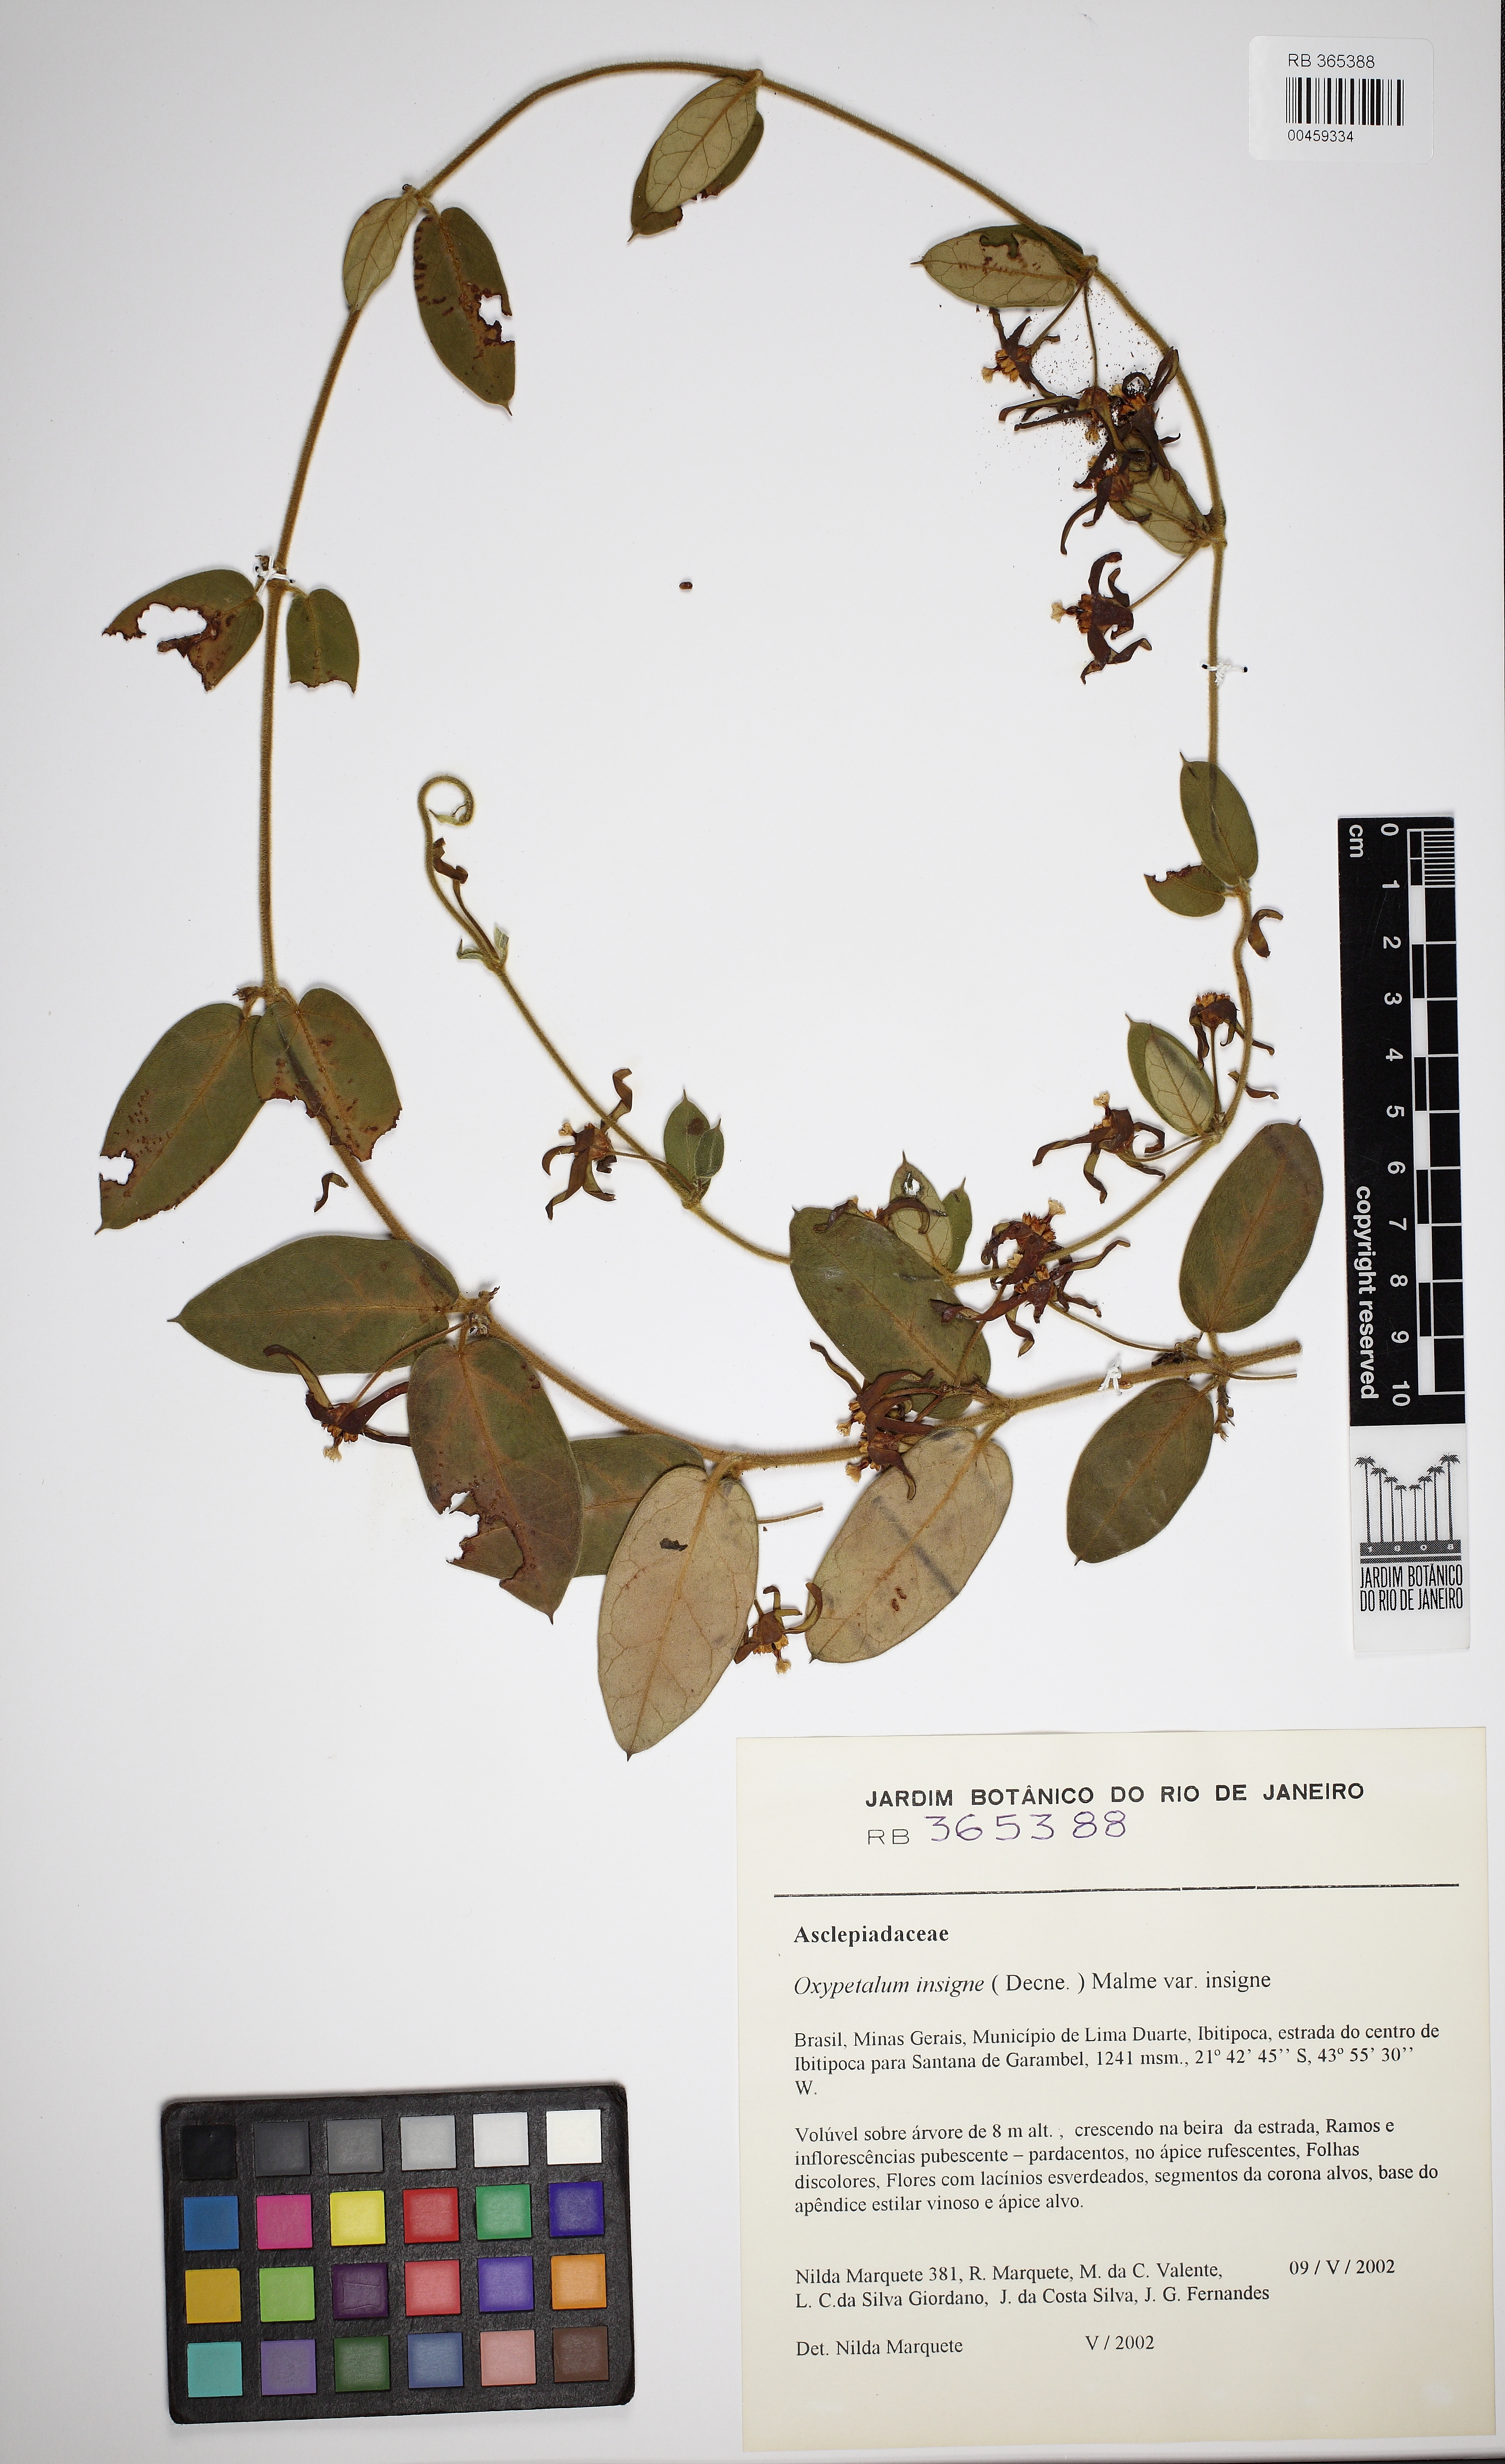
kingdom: Plantae
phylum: Tracheophyta
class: Magnoliopsida
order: Gentianales
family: Apocynaceae
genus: Oxypetalum
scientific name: Oxypetalum insigne
